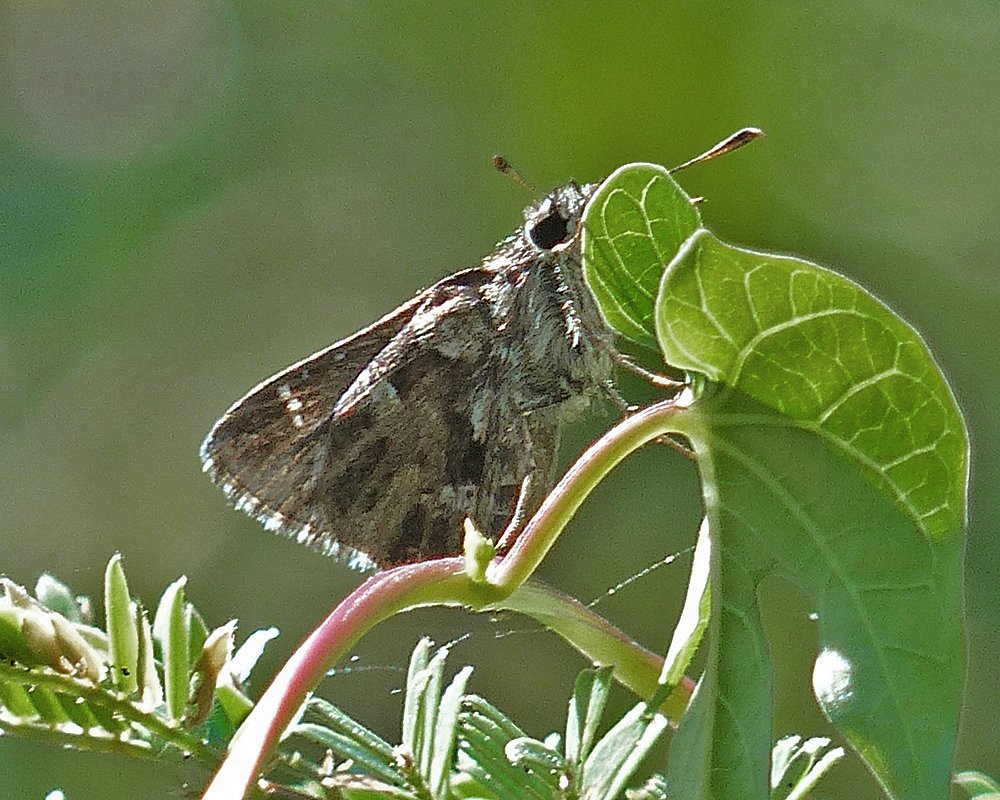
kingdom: Animalia
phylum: Arthropoda
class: Insecta
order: Lepidoptera
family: Hesperiidae
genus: Mastor
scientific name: Mastor nysa
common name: Nysa Roadside-Skipper
